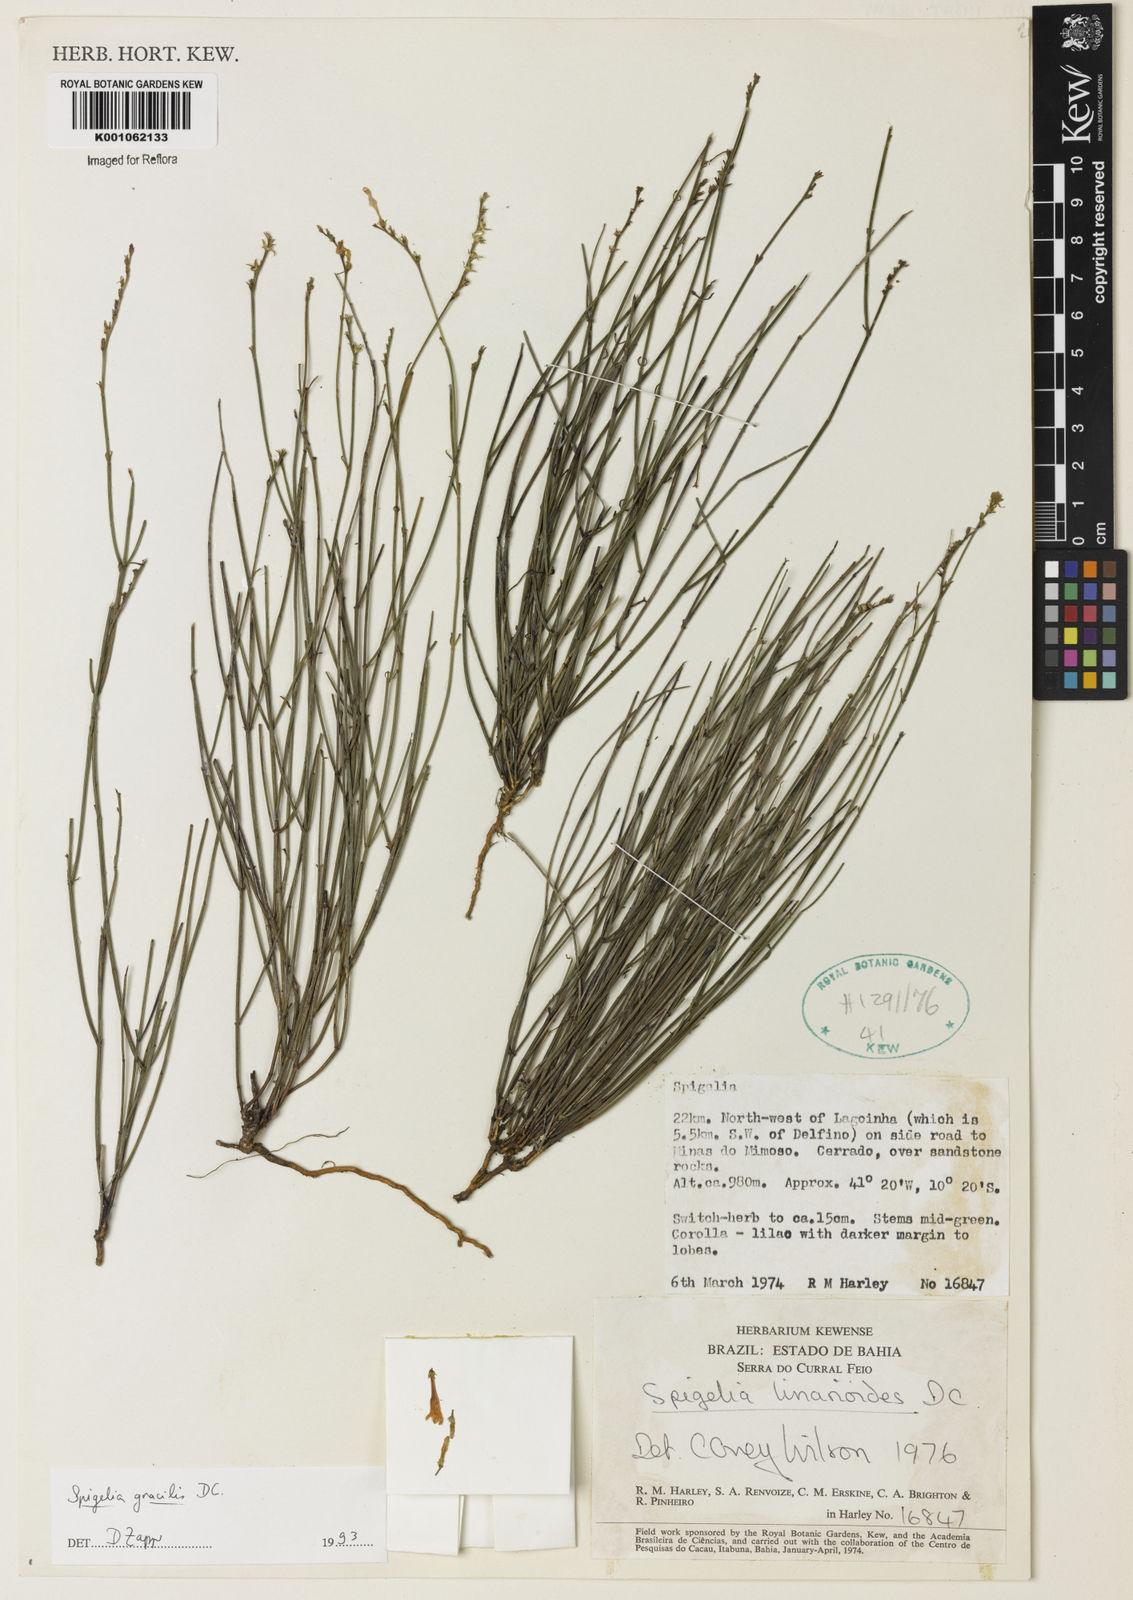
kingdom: Plantae
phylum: Tracheophyta
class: Magnoliopsida
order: Gentianales
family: Loganiaceae
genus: Spigelia
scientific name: Spigelia
